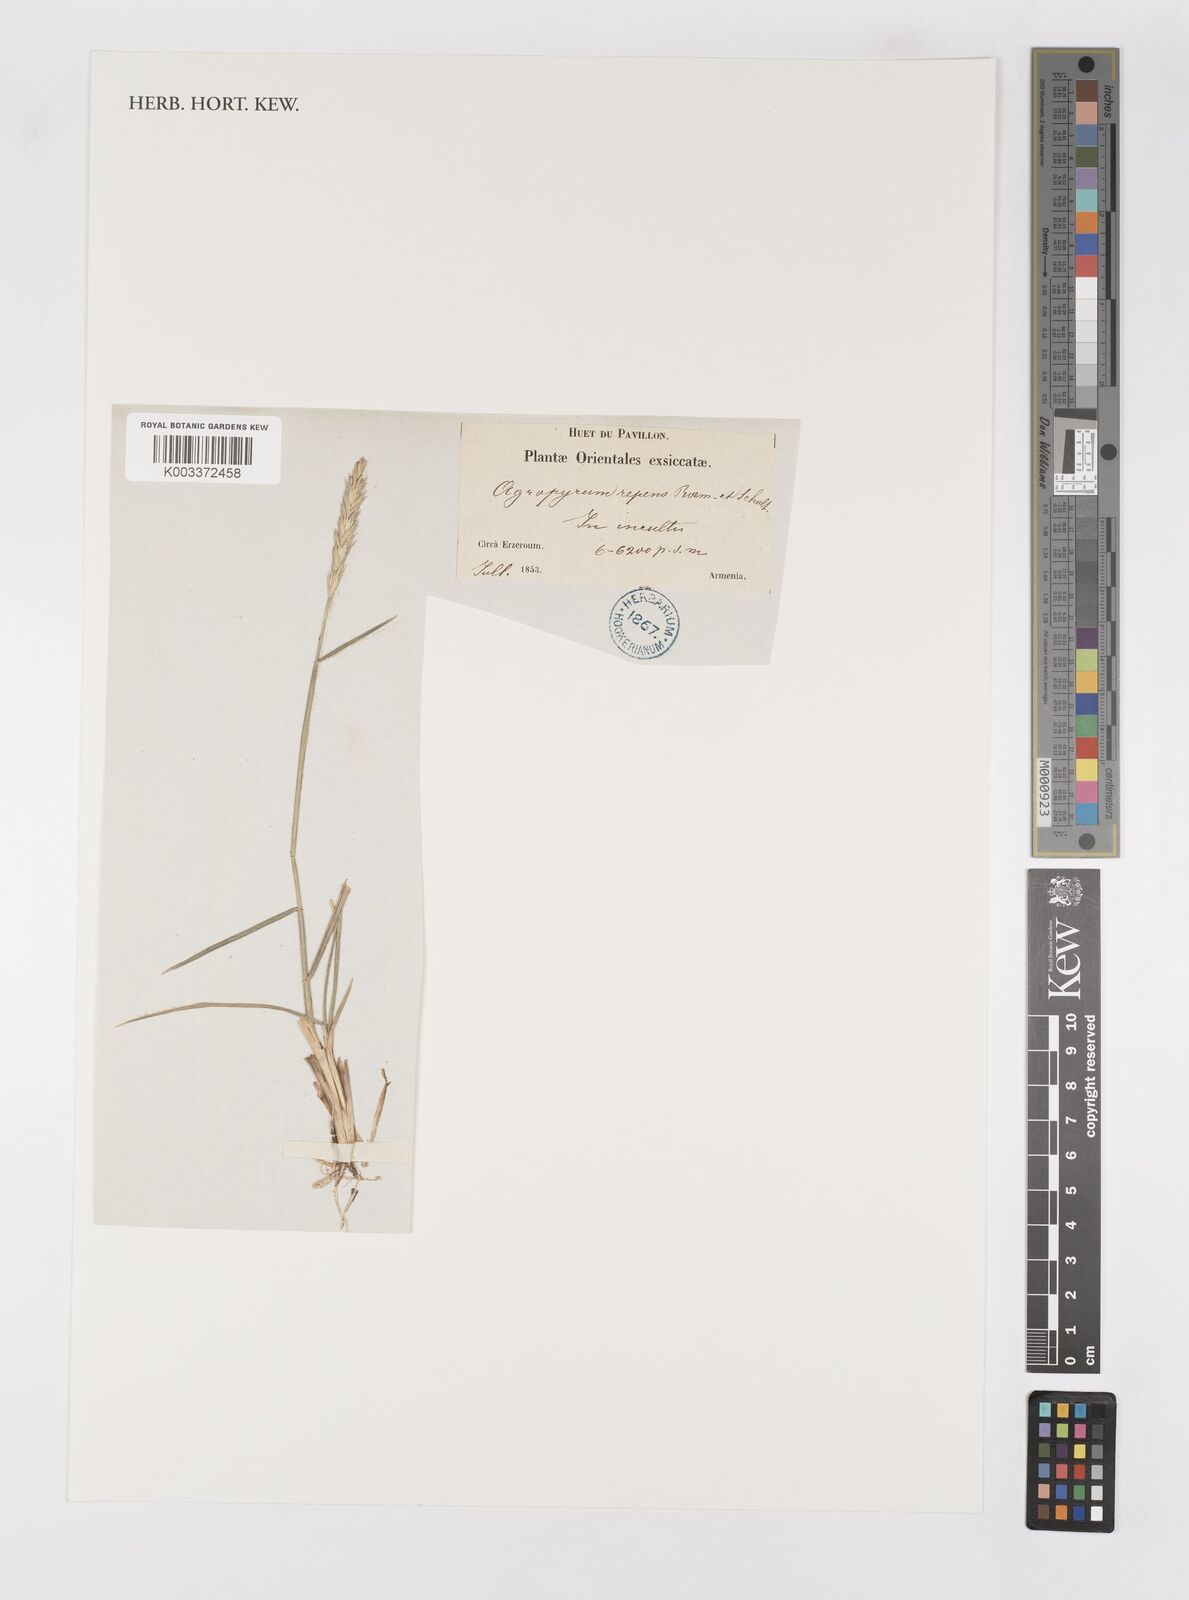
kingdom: Plantae
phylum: Tracheophyta
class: Liliopsida
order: Poales
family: Poaceae
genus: Elymus
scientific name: Elymus repens
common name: Quackgrass
